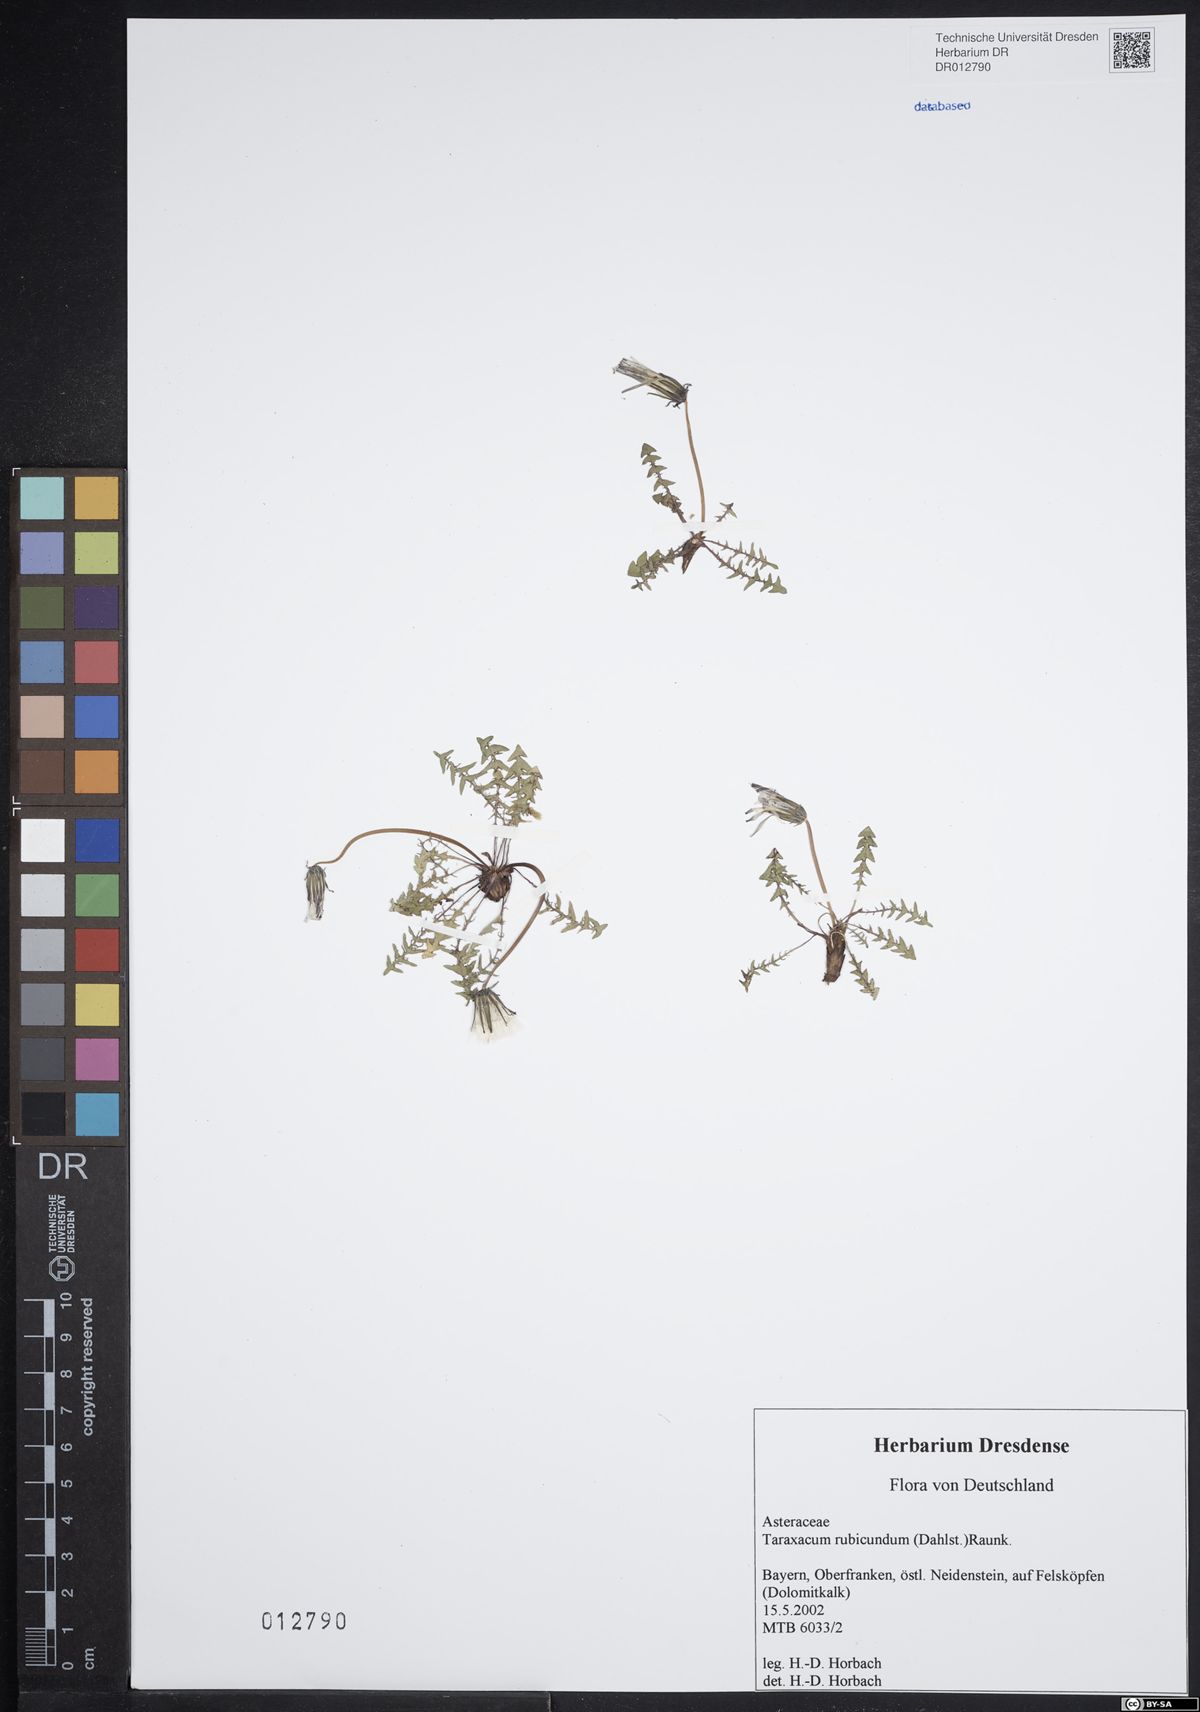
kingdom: Plantae
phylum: Tracheophyta
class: Magnoliopsida
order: Asterales
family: Asteraceae
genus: Taraxacum
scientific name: Taraxacum rubicundum
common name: Ruddy dandelion
